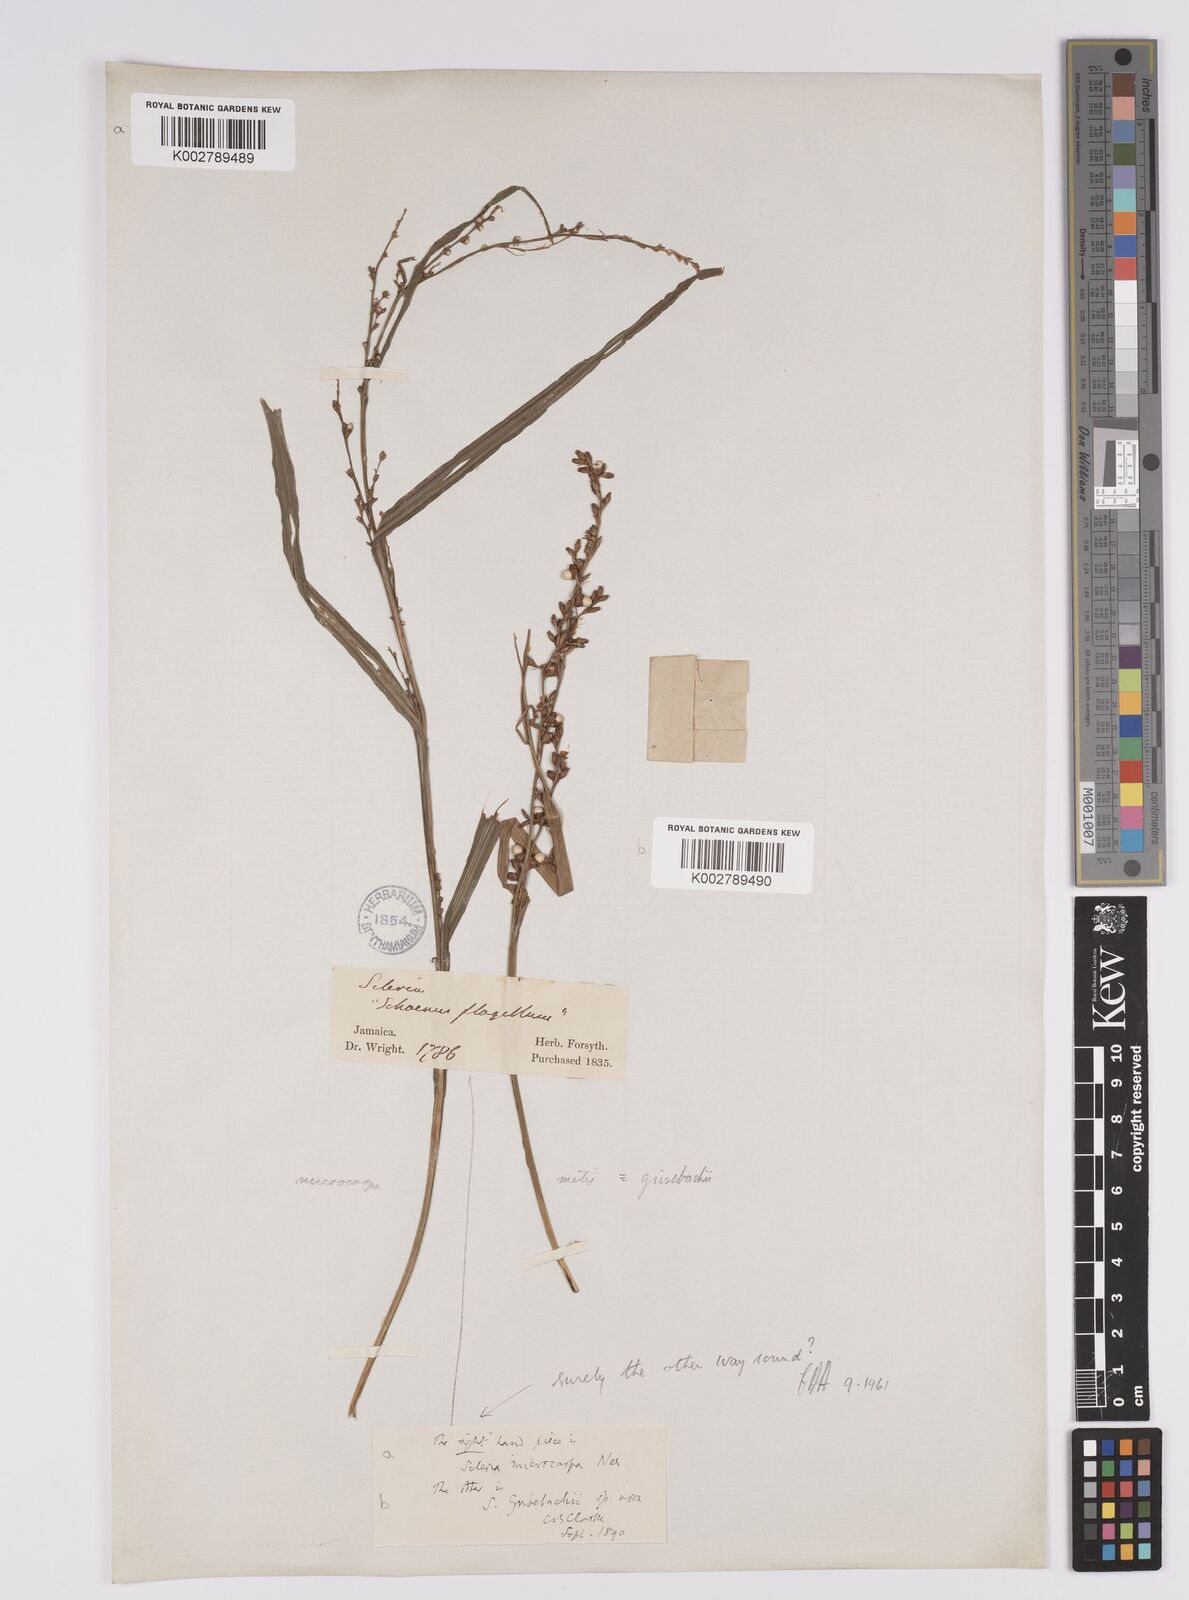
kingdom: Plantae
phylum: Tracheophyta
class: Liliopsida
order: Poales
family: Cyperaceae
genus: Scleria
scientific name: Scleria eggersiana
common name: Eggers' nutrush
